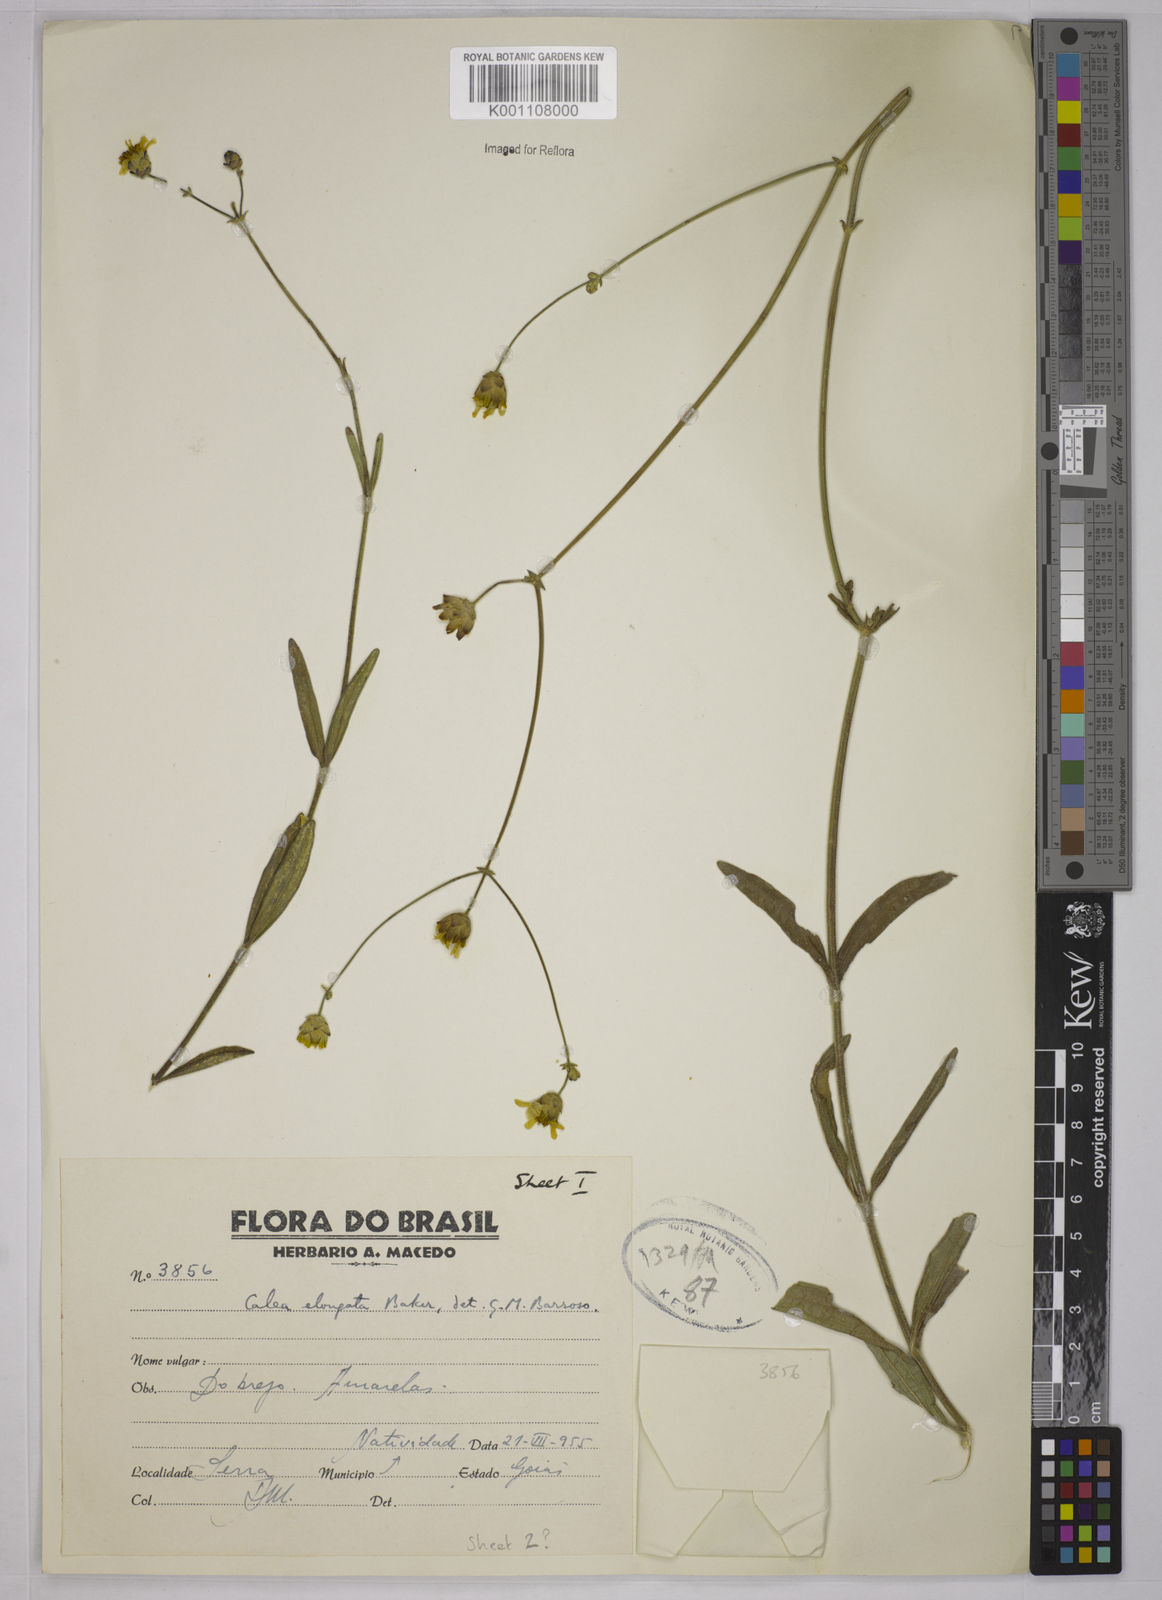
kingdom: Plantae
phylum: Tracheophyta
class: Magnoliopsida
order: Asterales
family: Asteraceae
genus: Calea
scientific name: Calea elongata
